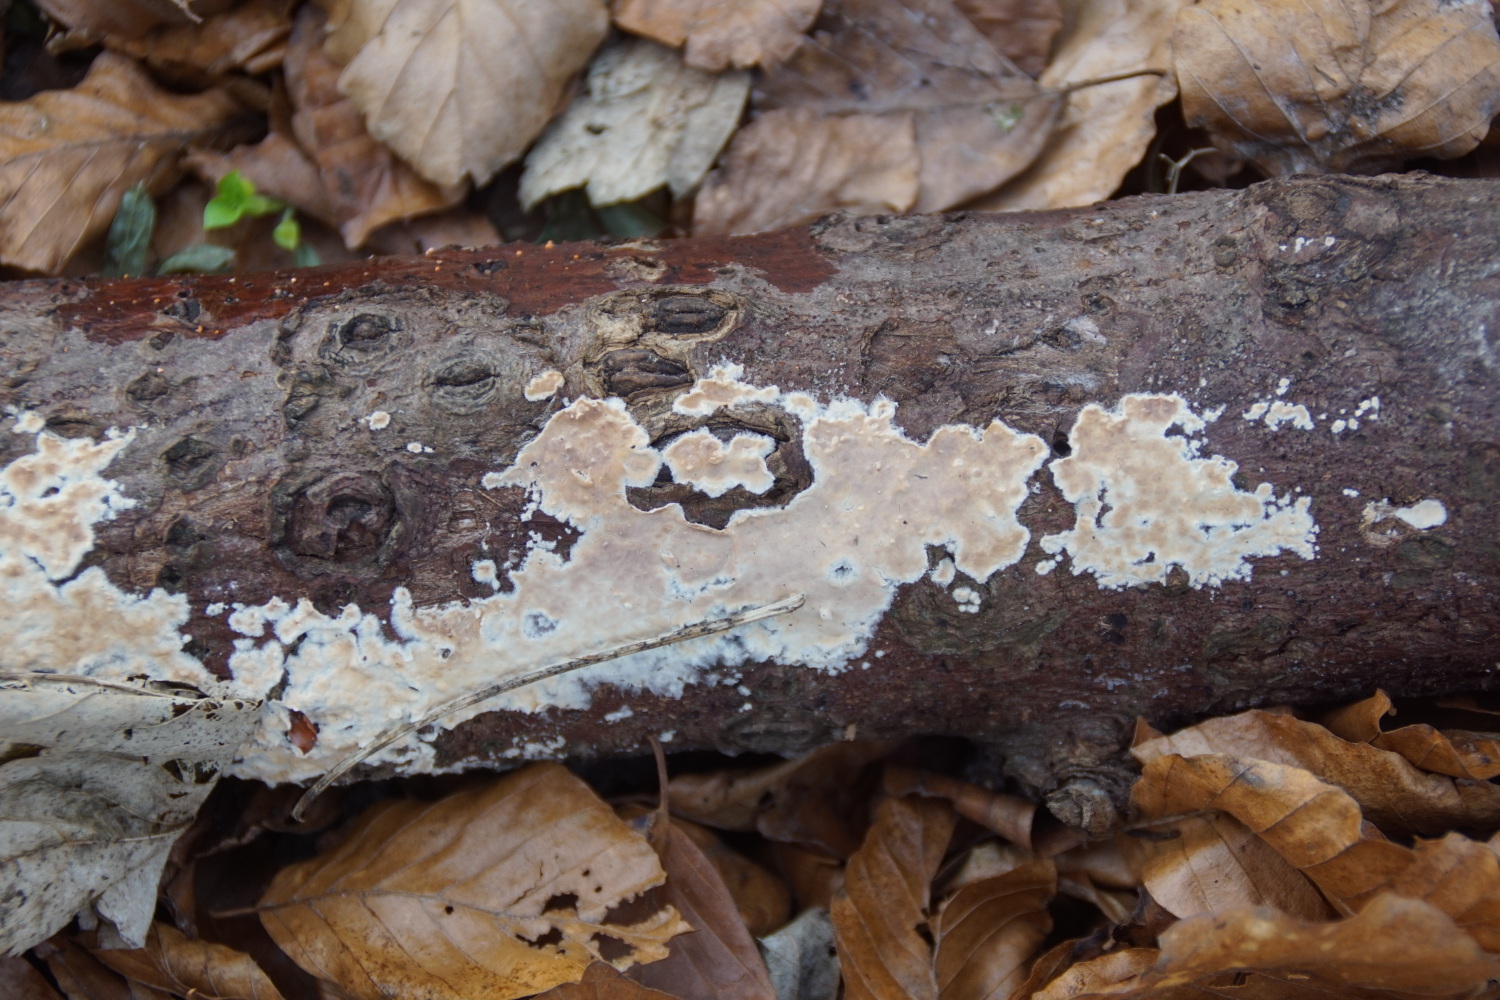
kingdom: Fungi
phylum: Basidiomycota
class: Agaricomycetes
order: Agaricales
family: Physalacriaceae
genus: Cylindrobasidium
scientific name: Cylindrobasidium evolvens
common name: sprækkehinde
